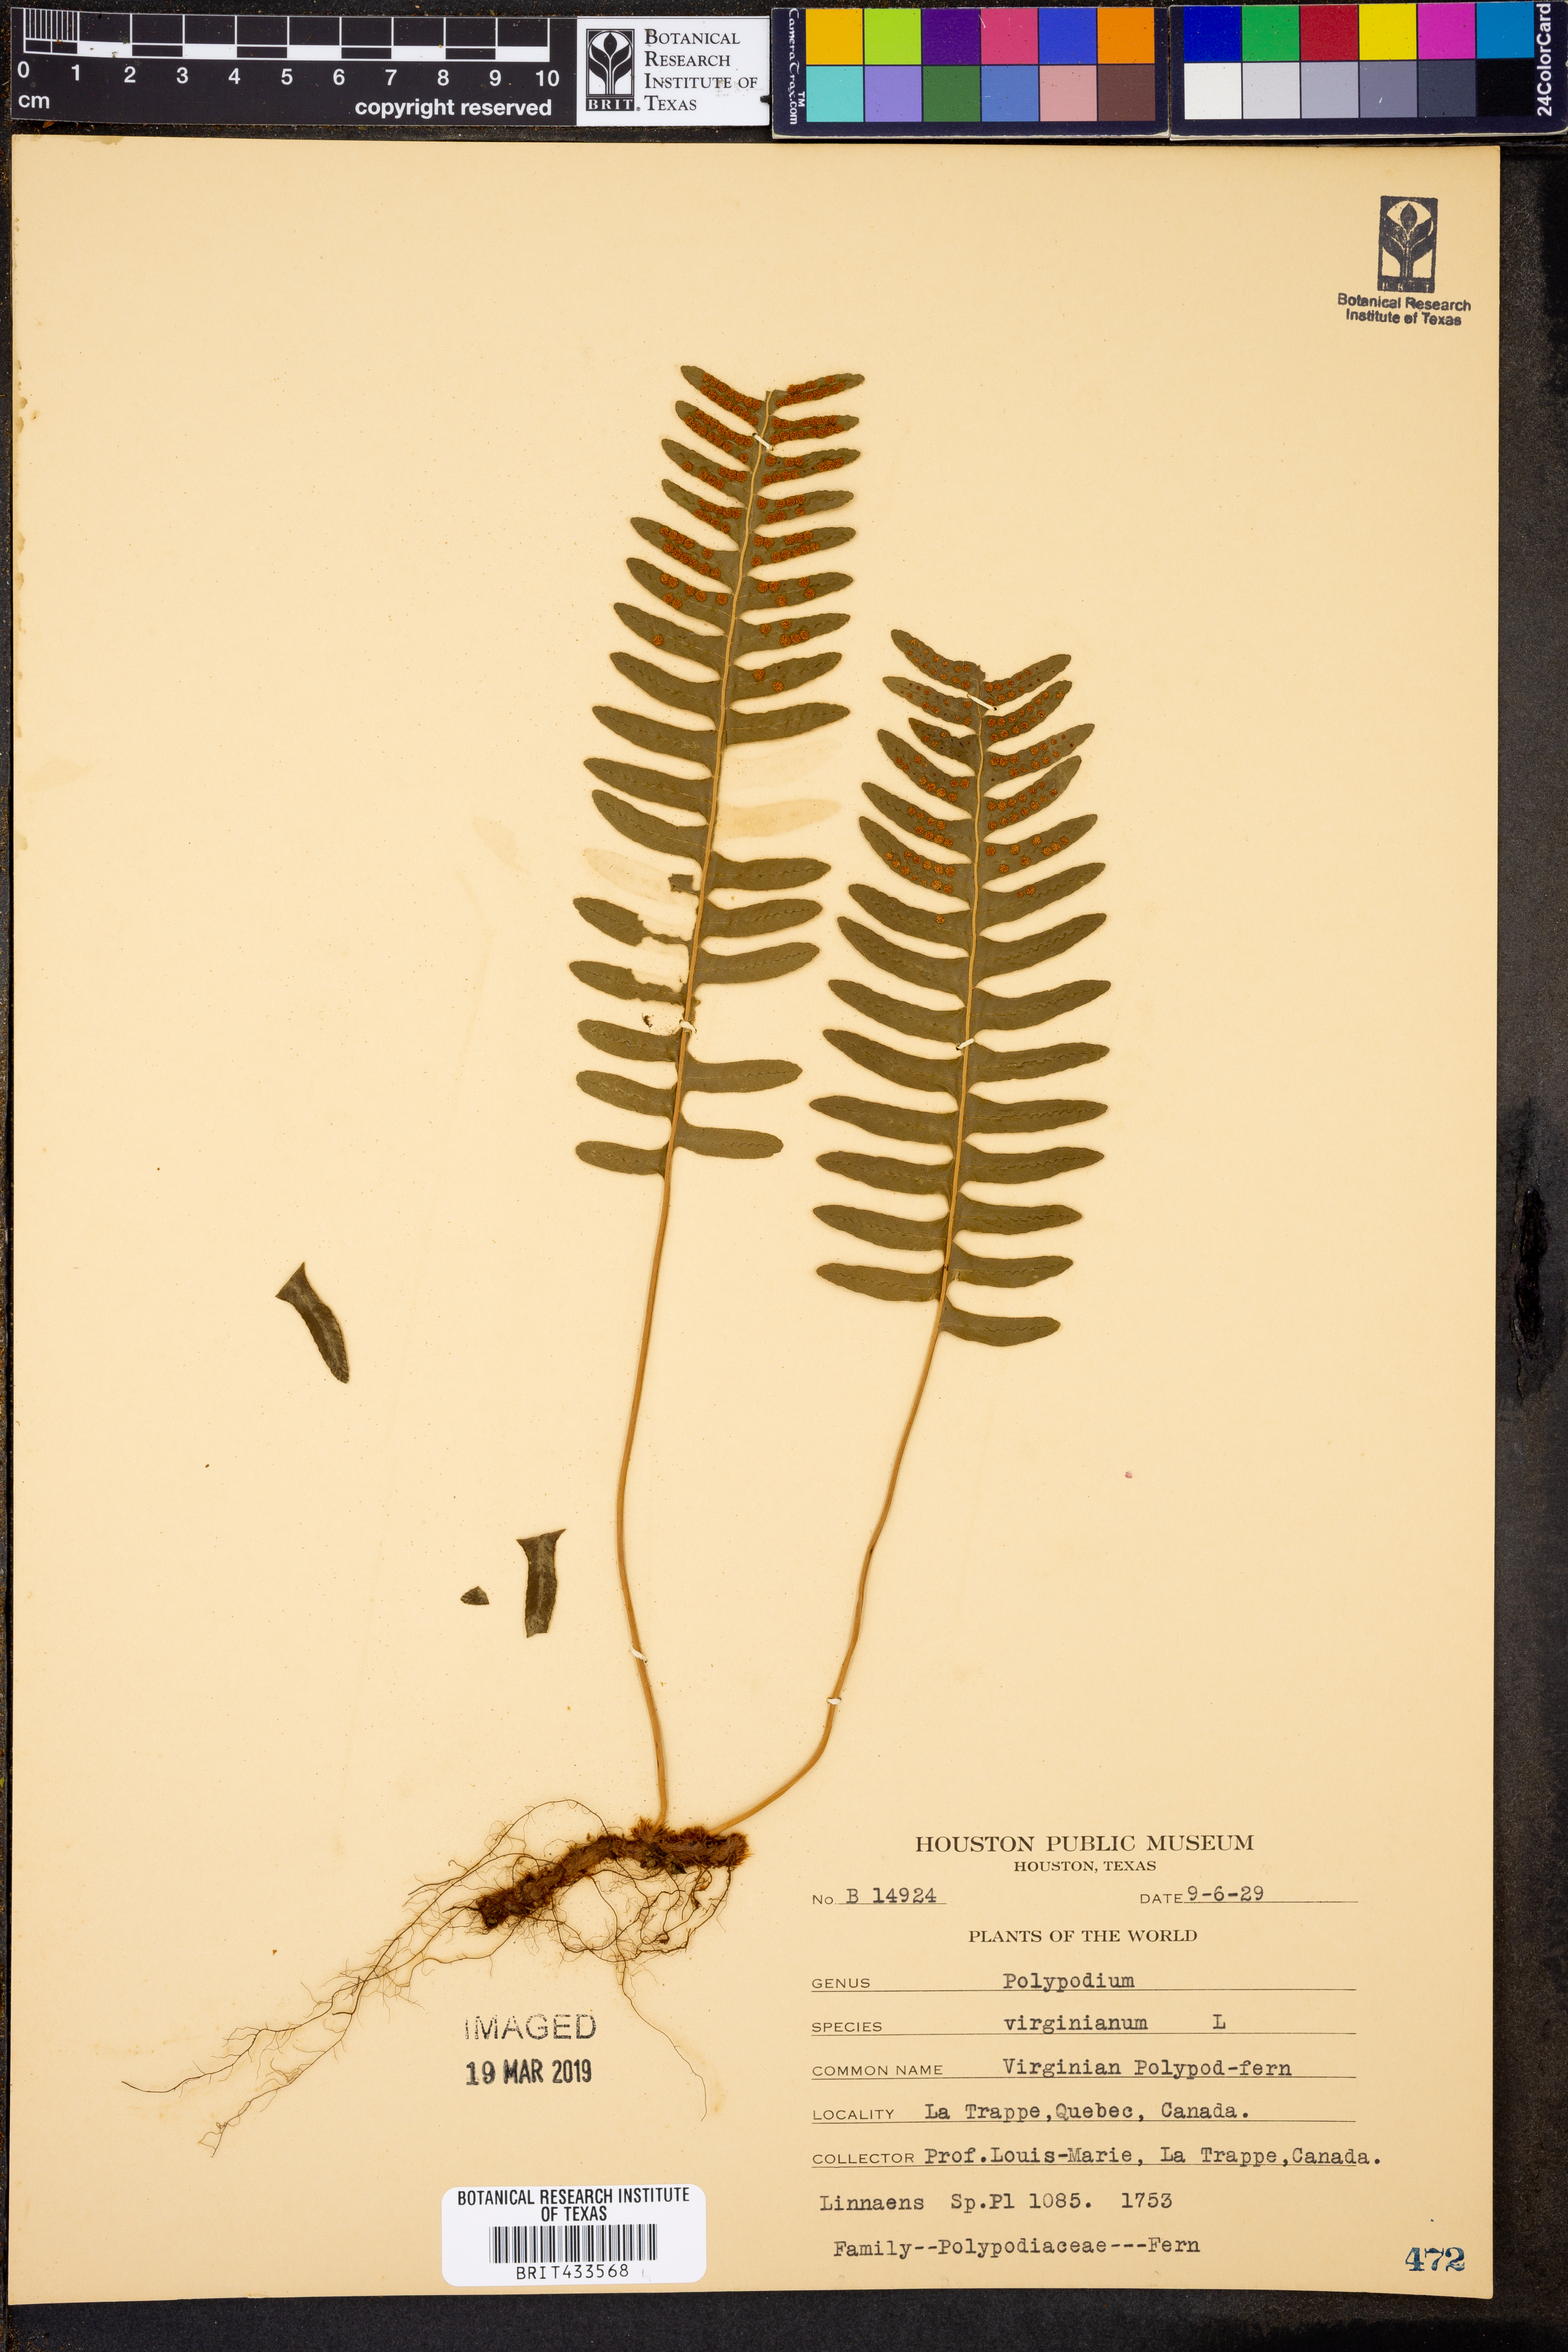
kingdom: Plantae
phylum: Tracheophyta
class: Polypodiopsida
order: Polypodiales
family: Polypodiaceae
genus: Polypodium
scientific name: Polypodium virginianum
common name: American wall fern
